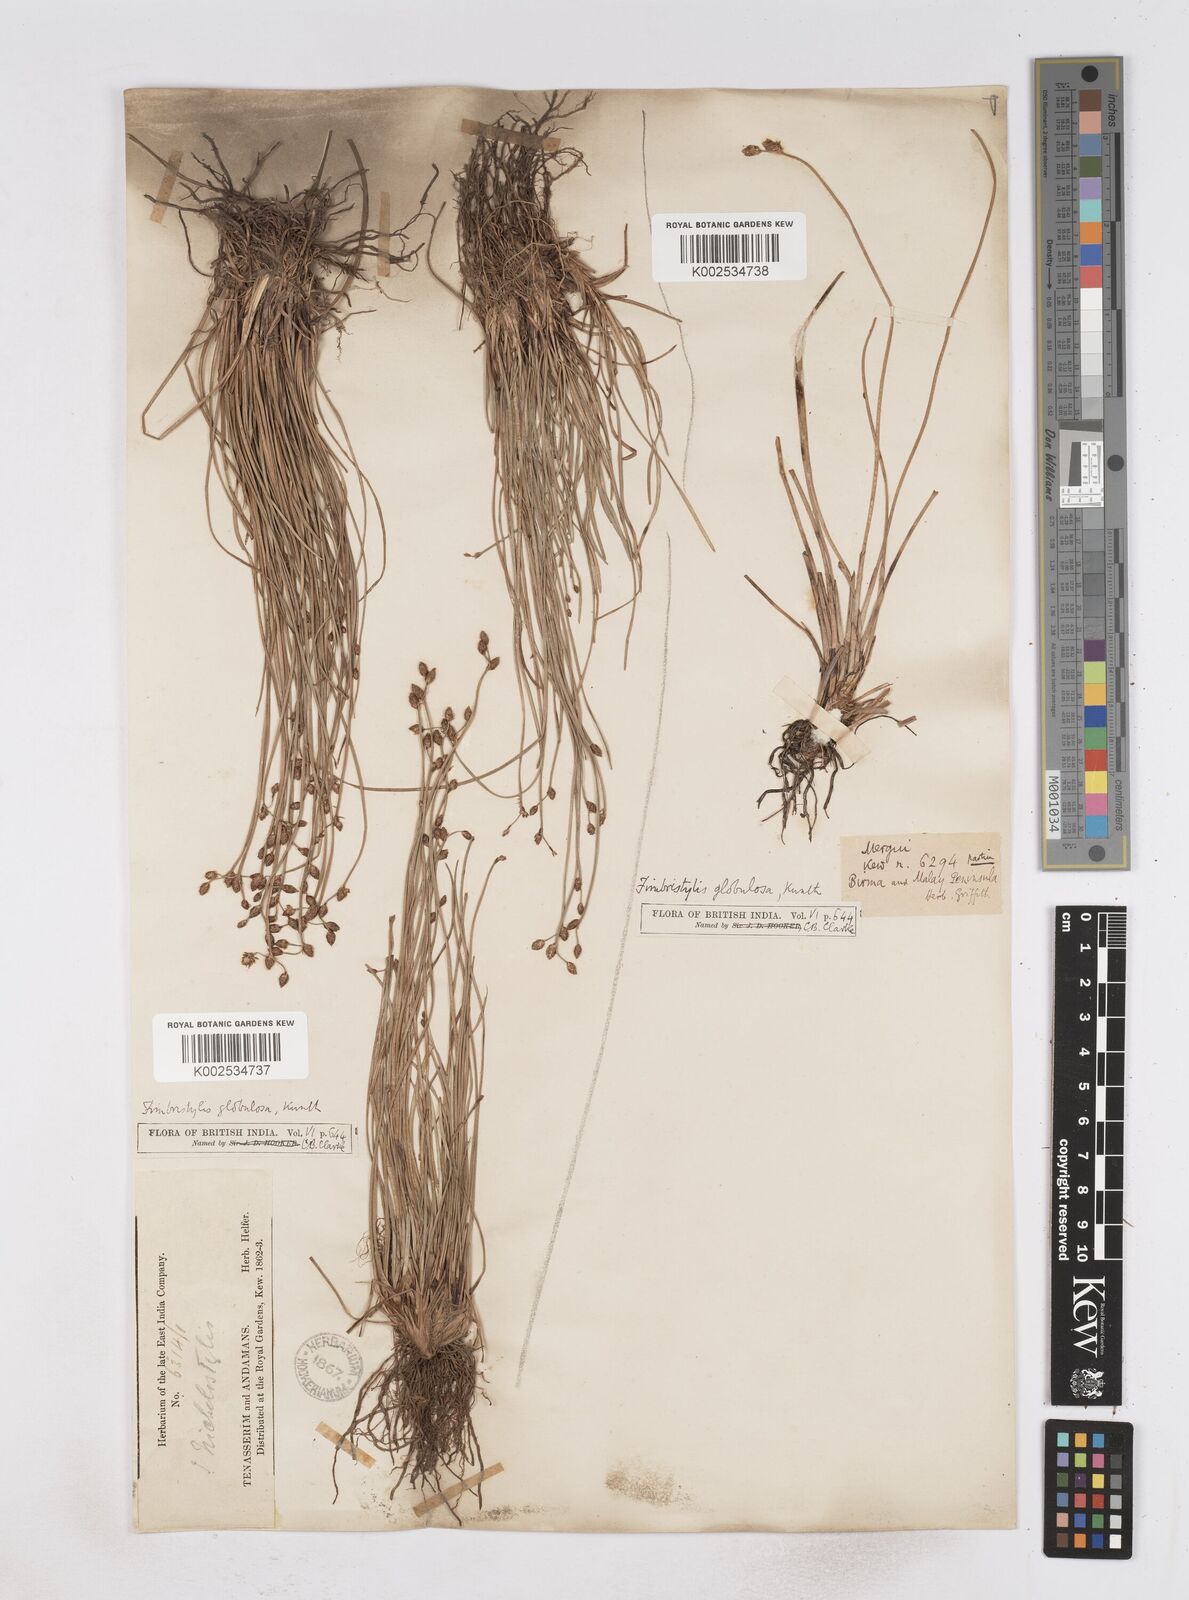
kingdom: Plantae
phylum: Tracheophyta
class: Liliopsida
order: Poales
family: Cyperaceae
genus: Fimbristylis
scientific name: Fimbristylis umbellaris
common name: Globular fimbristylis
